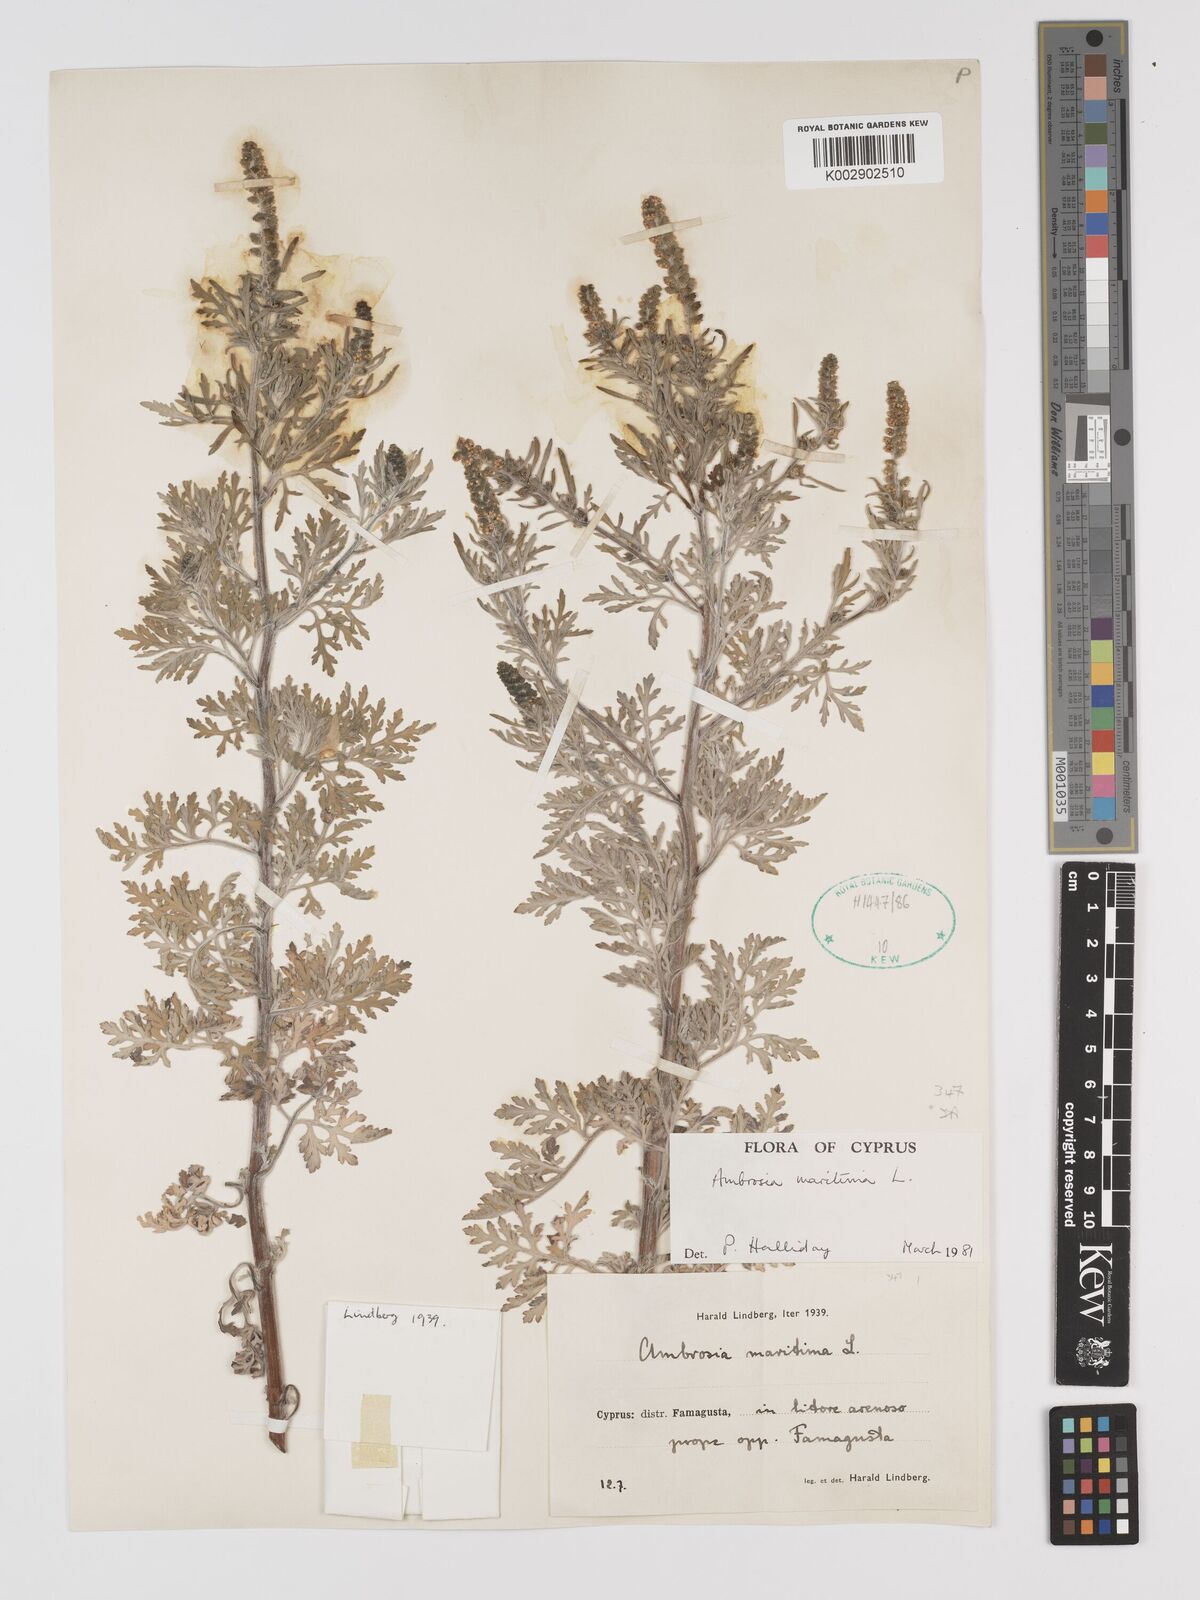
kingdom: Plantae
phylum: Tracheophyta
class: Magnoliopsida
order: Asterales
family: Asteraceae
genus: Ambrosia
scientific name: Ambrosia maritima
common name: Sea ambrosia
